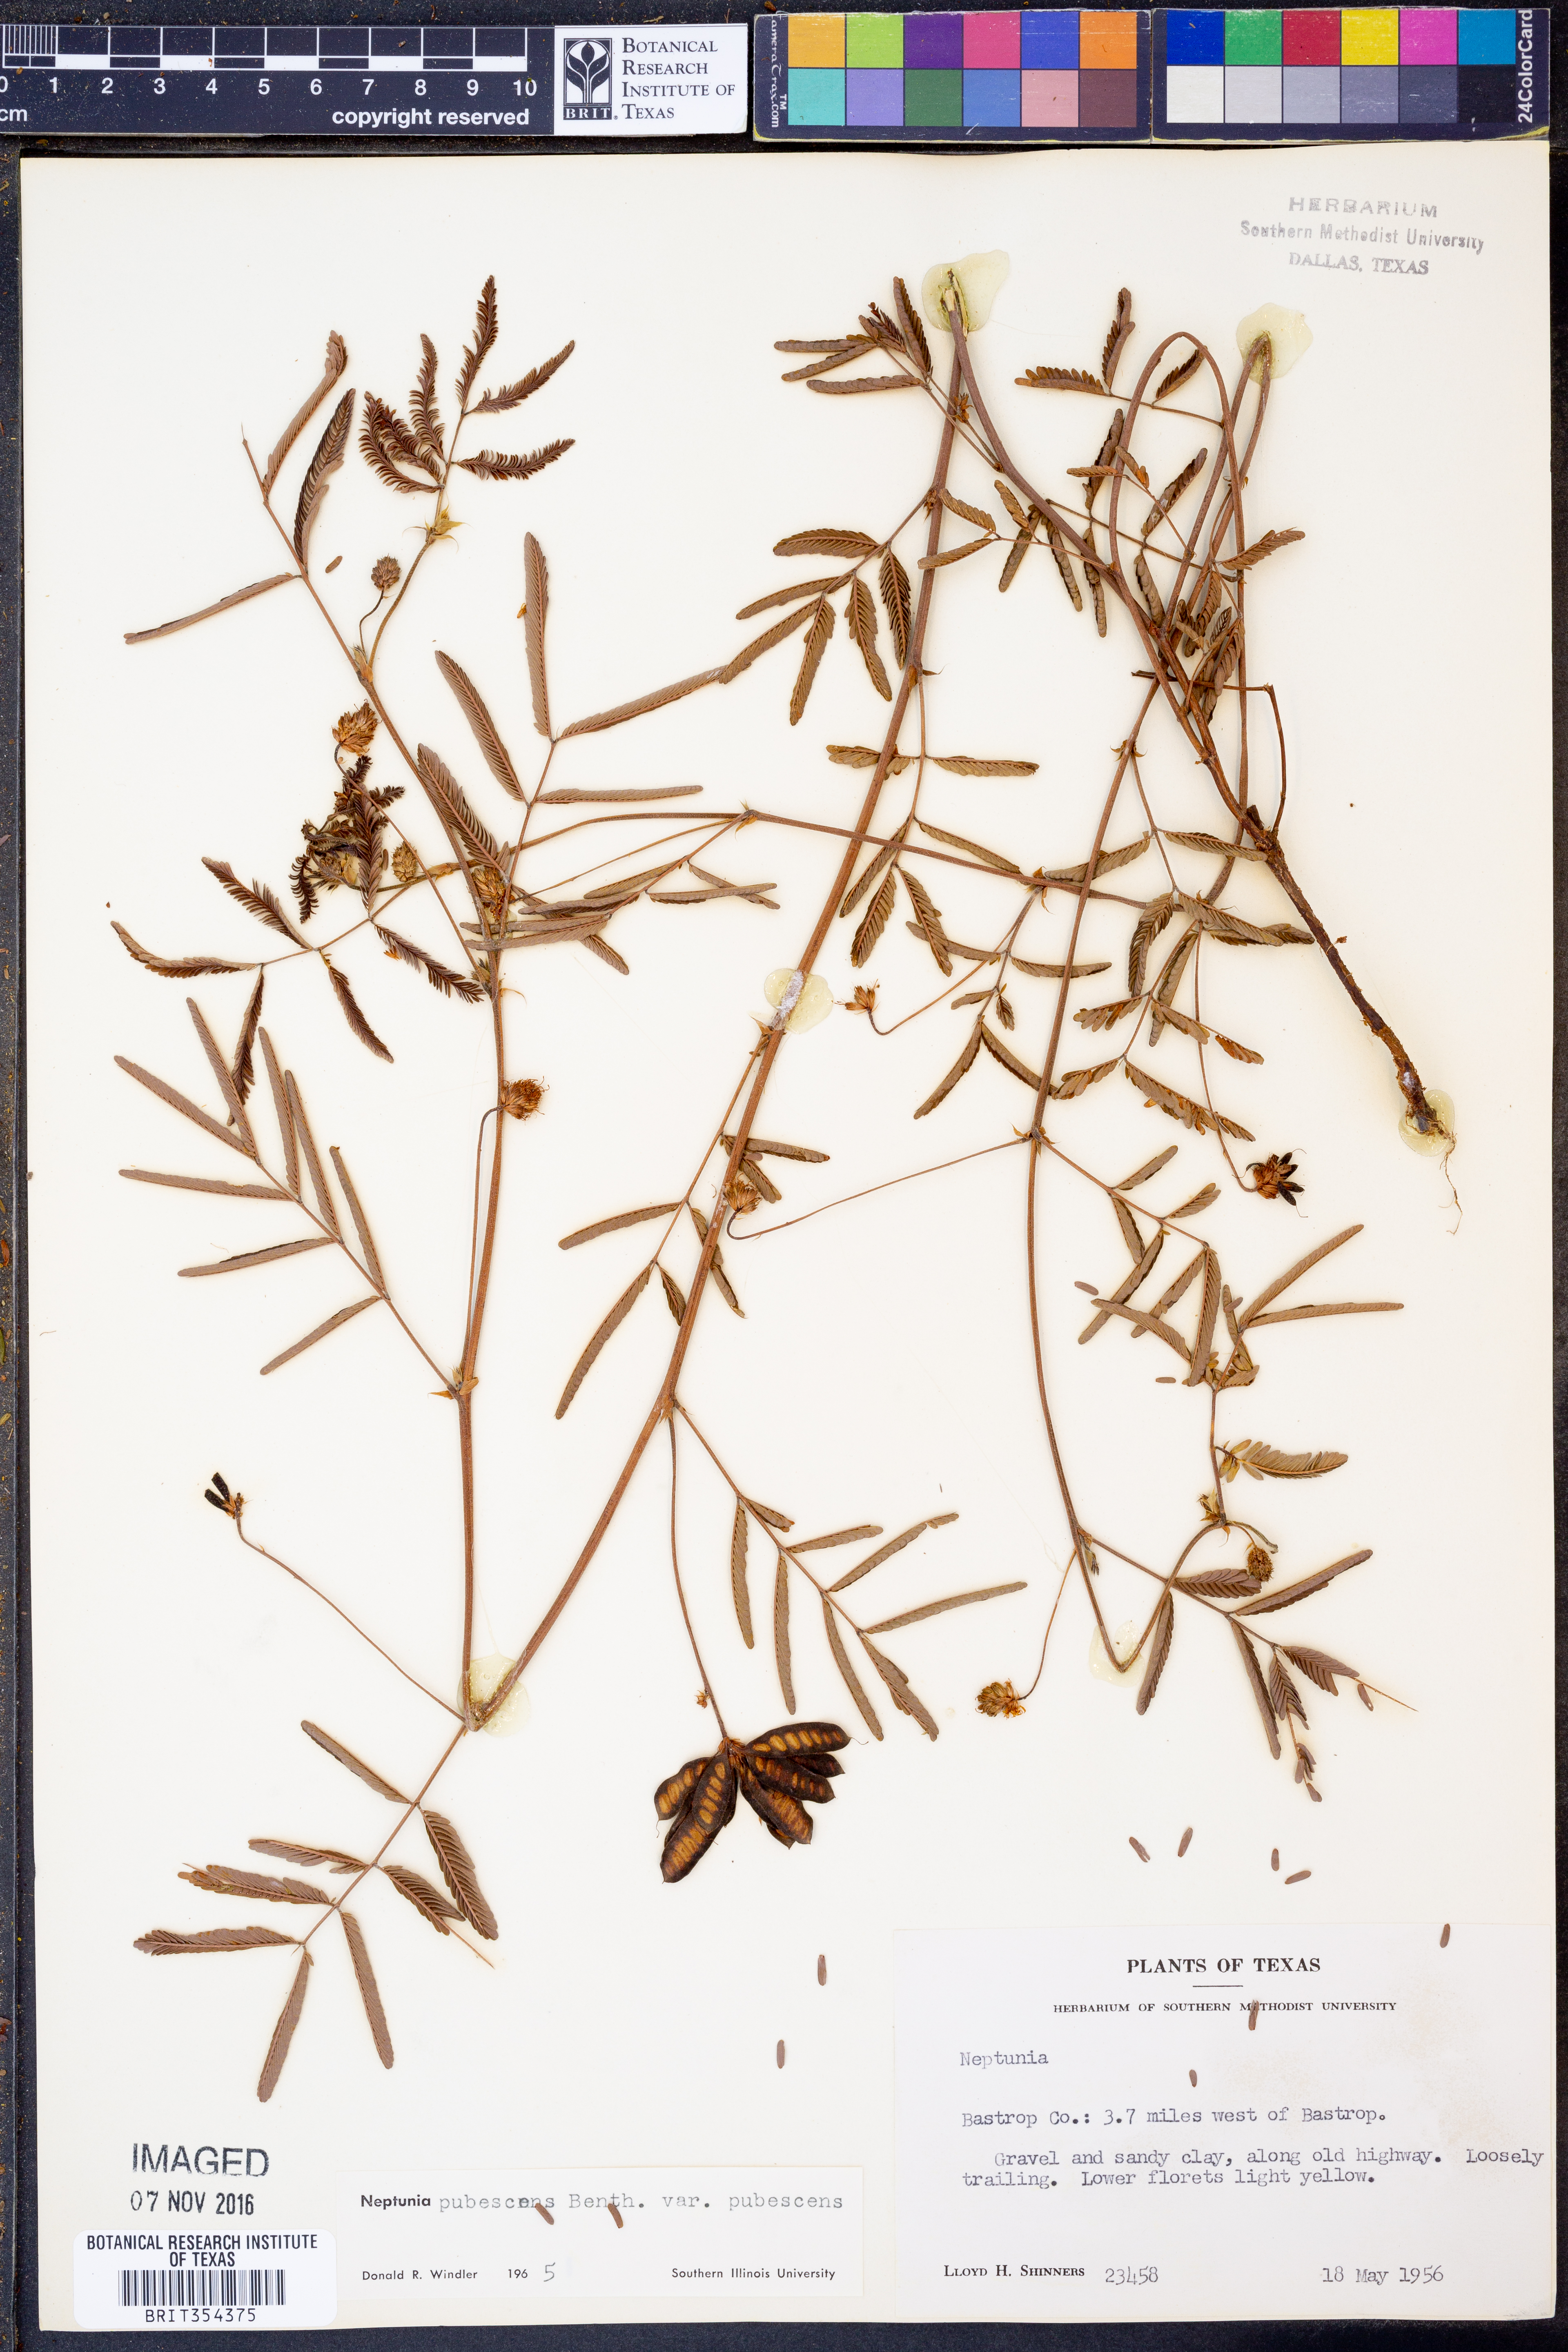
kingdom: Plantae
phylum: Tracheophyta
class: Magnoliopsida
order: Fabales
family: Fabaceae
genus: Neptunia
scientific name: Neptunia pubescens
